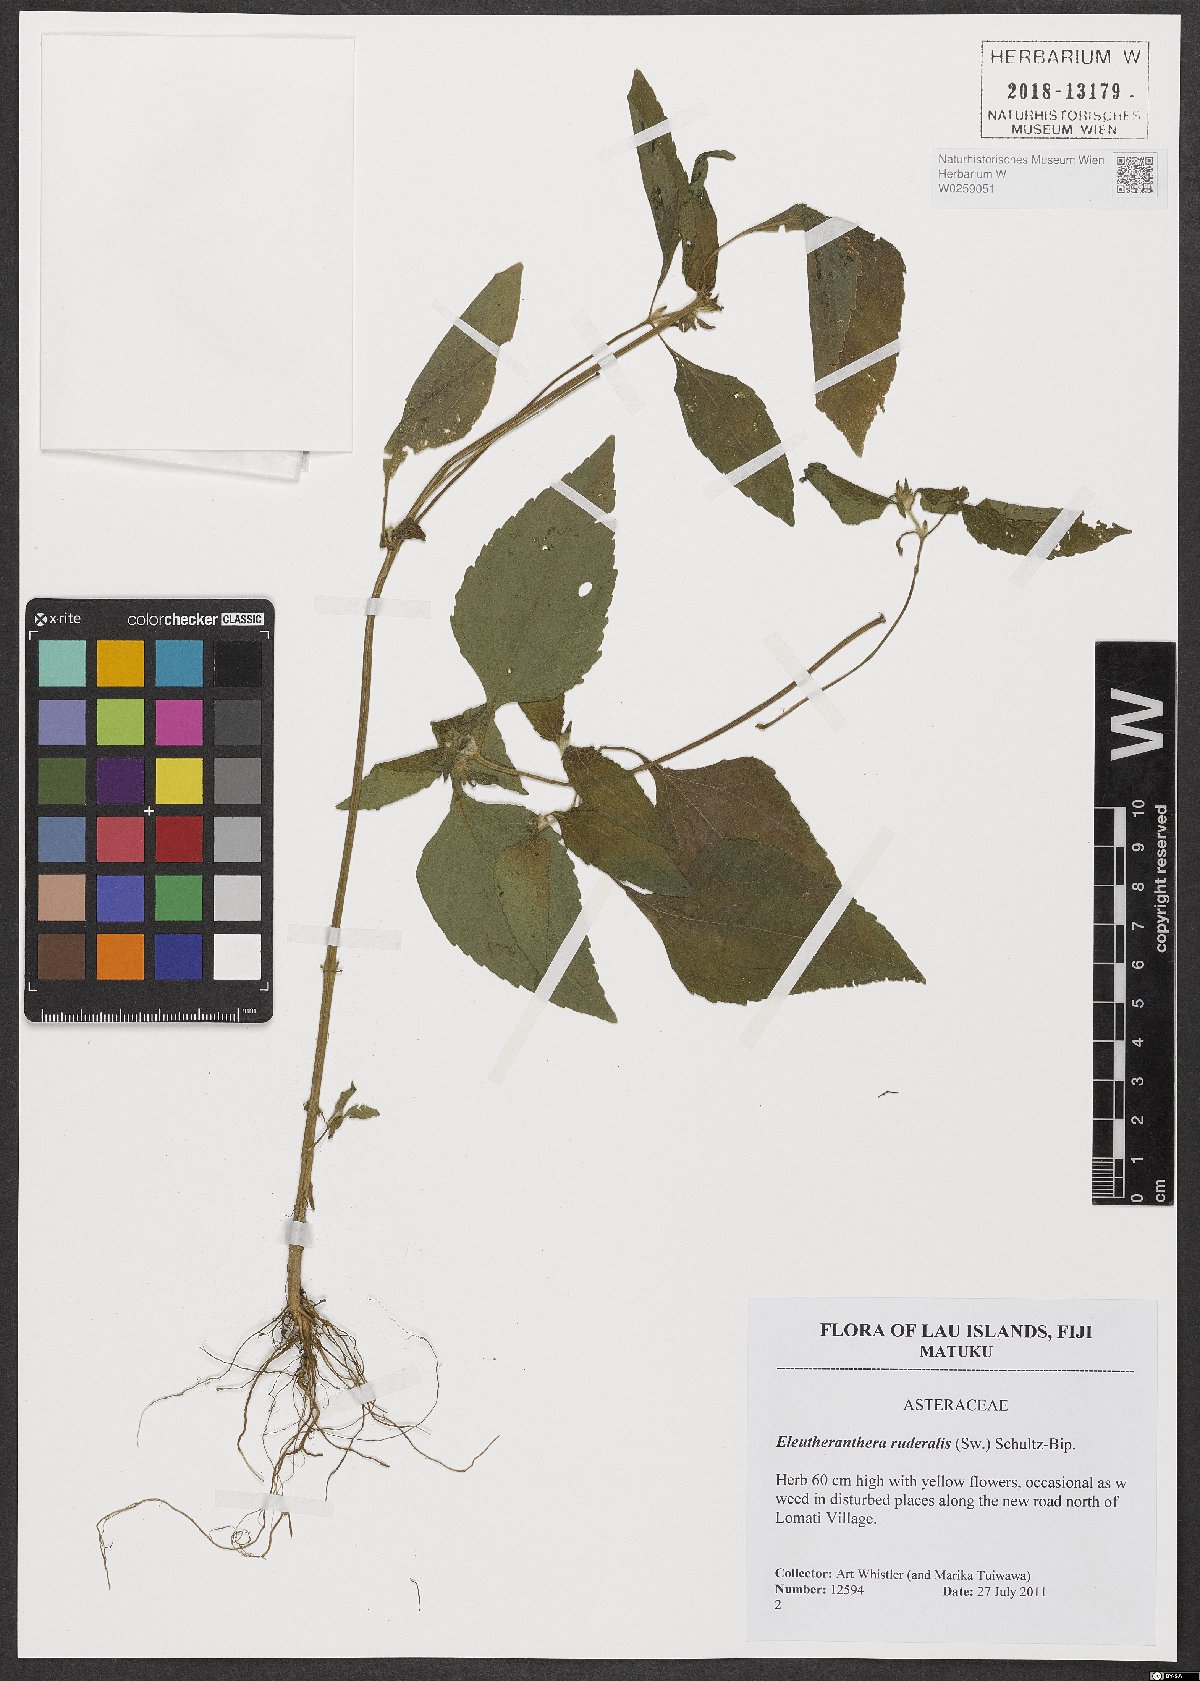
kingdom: Plantae
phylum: Tracheophyta
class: Magnoliopsida
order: Asterales
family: Asteraceae
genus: Eleutheranthera
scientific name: Eleutheranthera ruderalis
